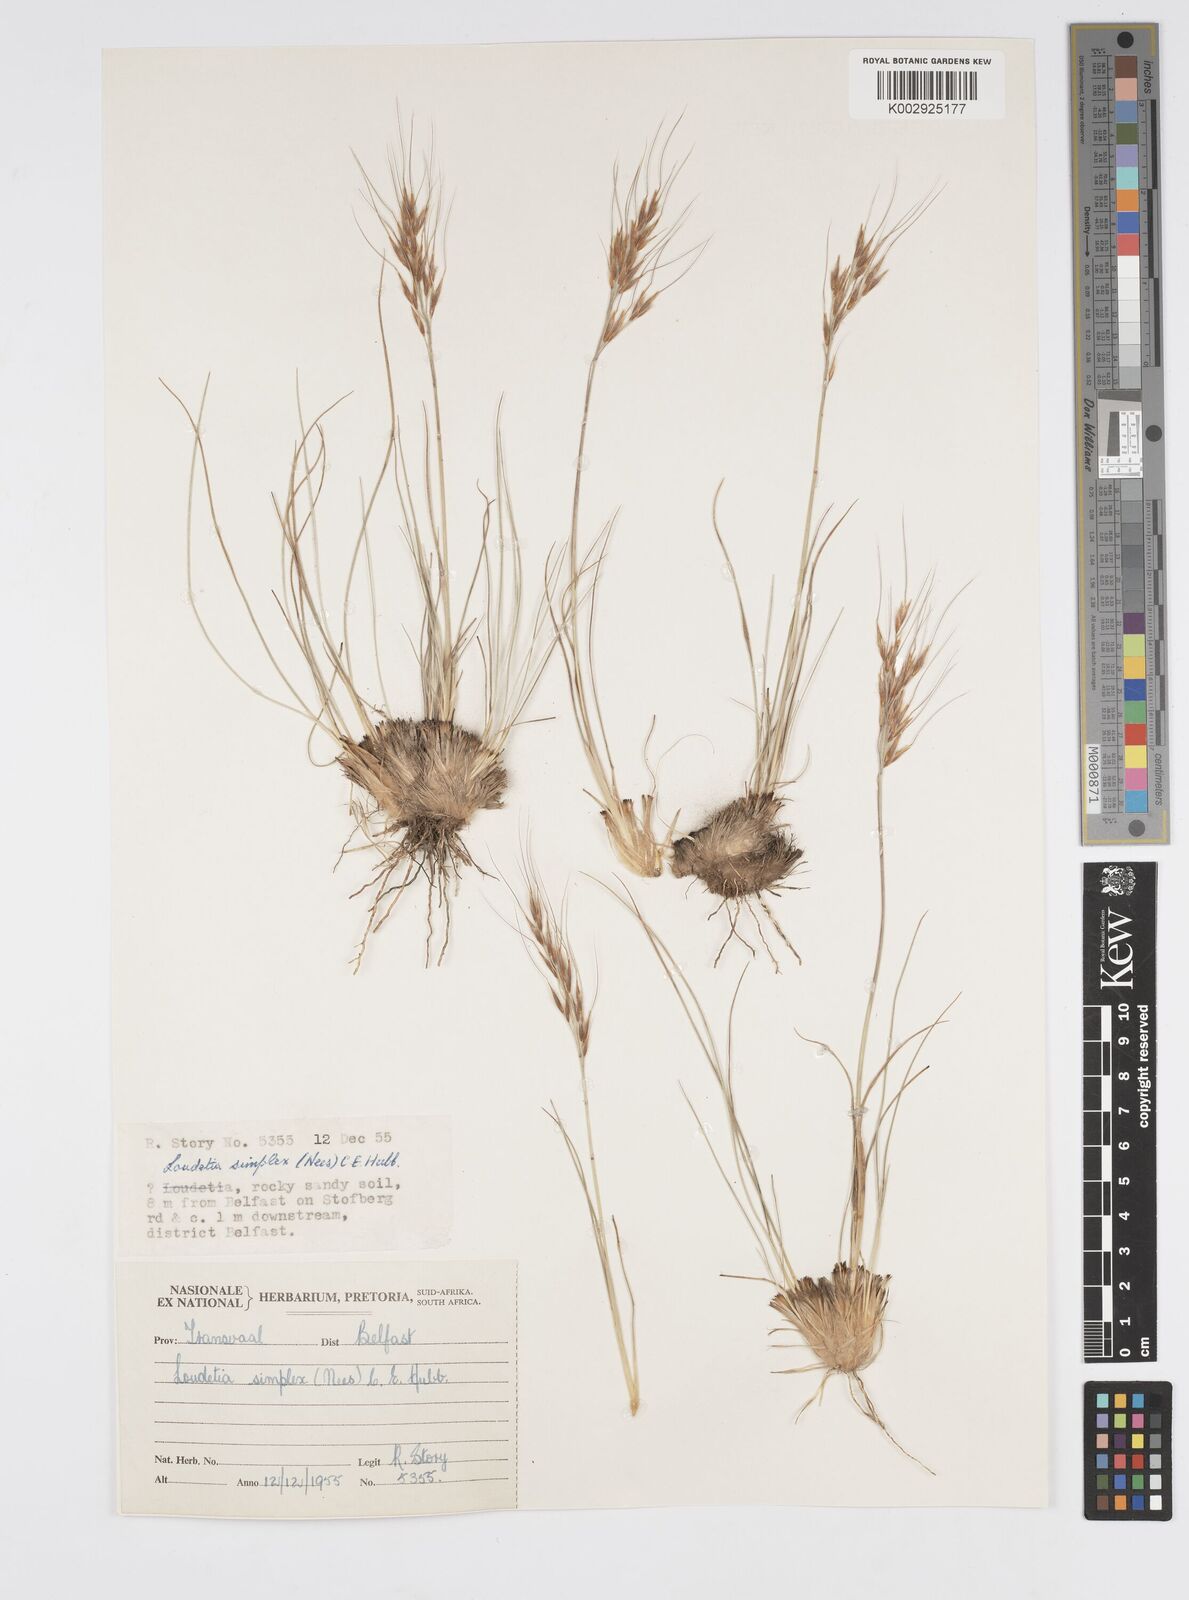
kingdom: Plantae
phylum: Tracheophyta
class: Liliopsida
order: Poales
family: Poaceae
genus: Loudetia
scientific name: Loudetia simplex
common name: Common russet grass
